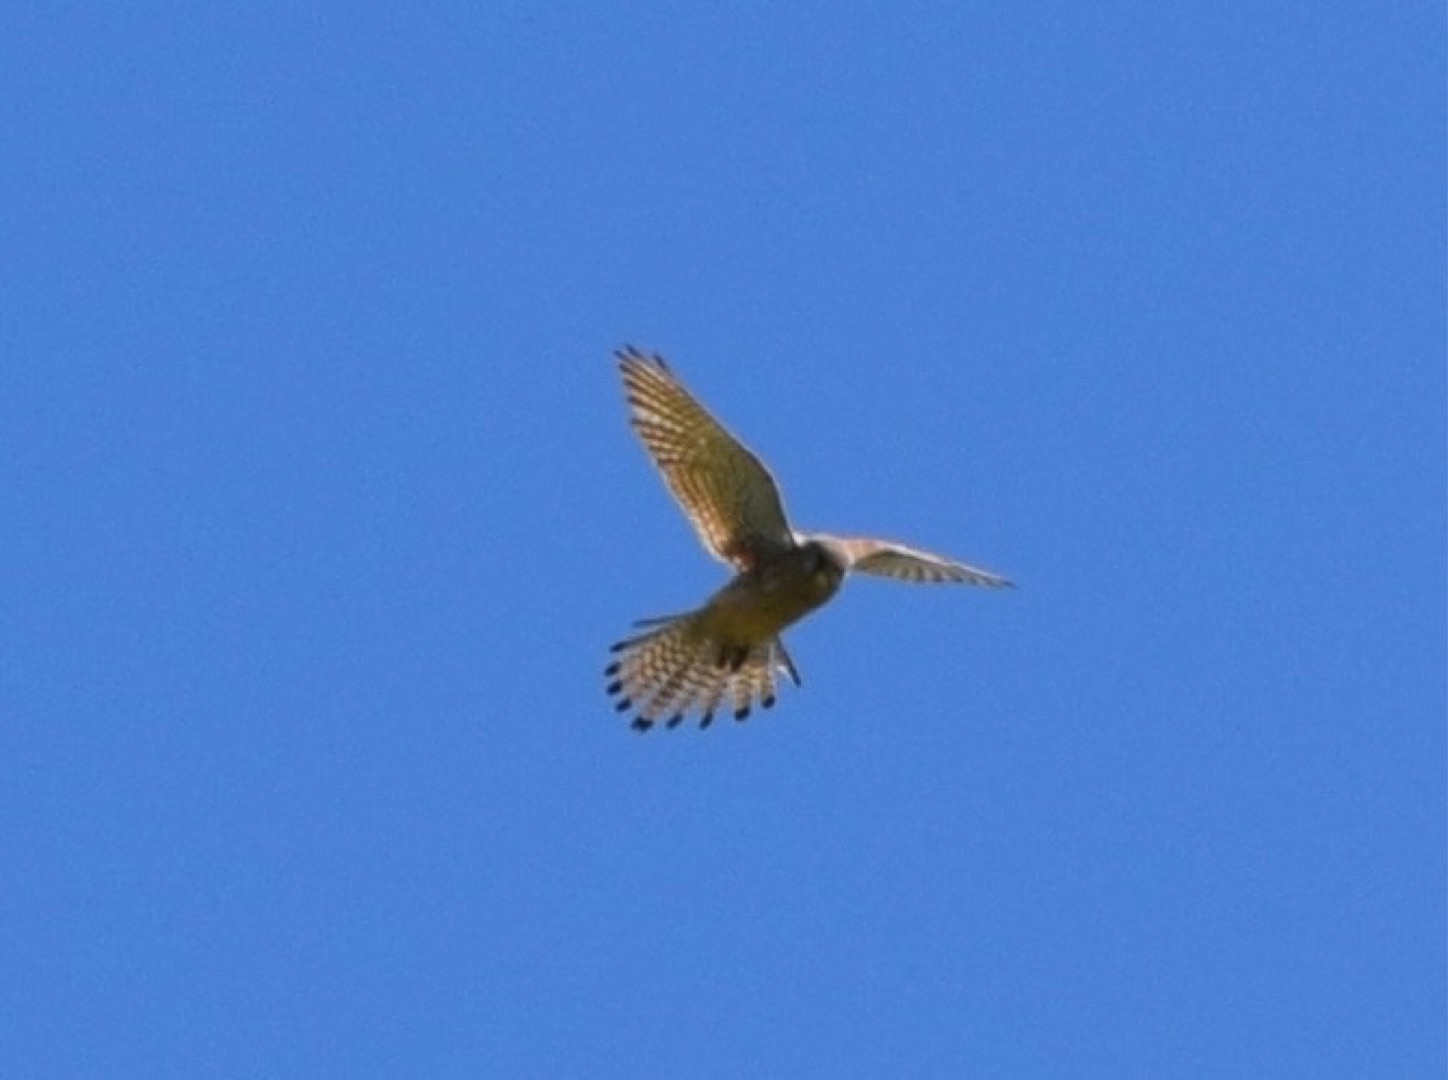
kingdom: Animalia
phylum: Chordata
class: Aves
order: Falconiformes
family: Falconidae
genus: Falco
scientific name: Falco tinnunculus
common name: Tårnfalk
